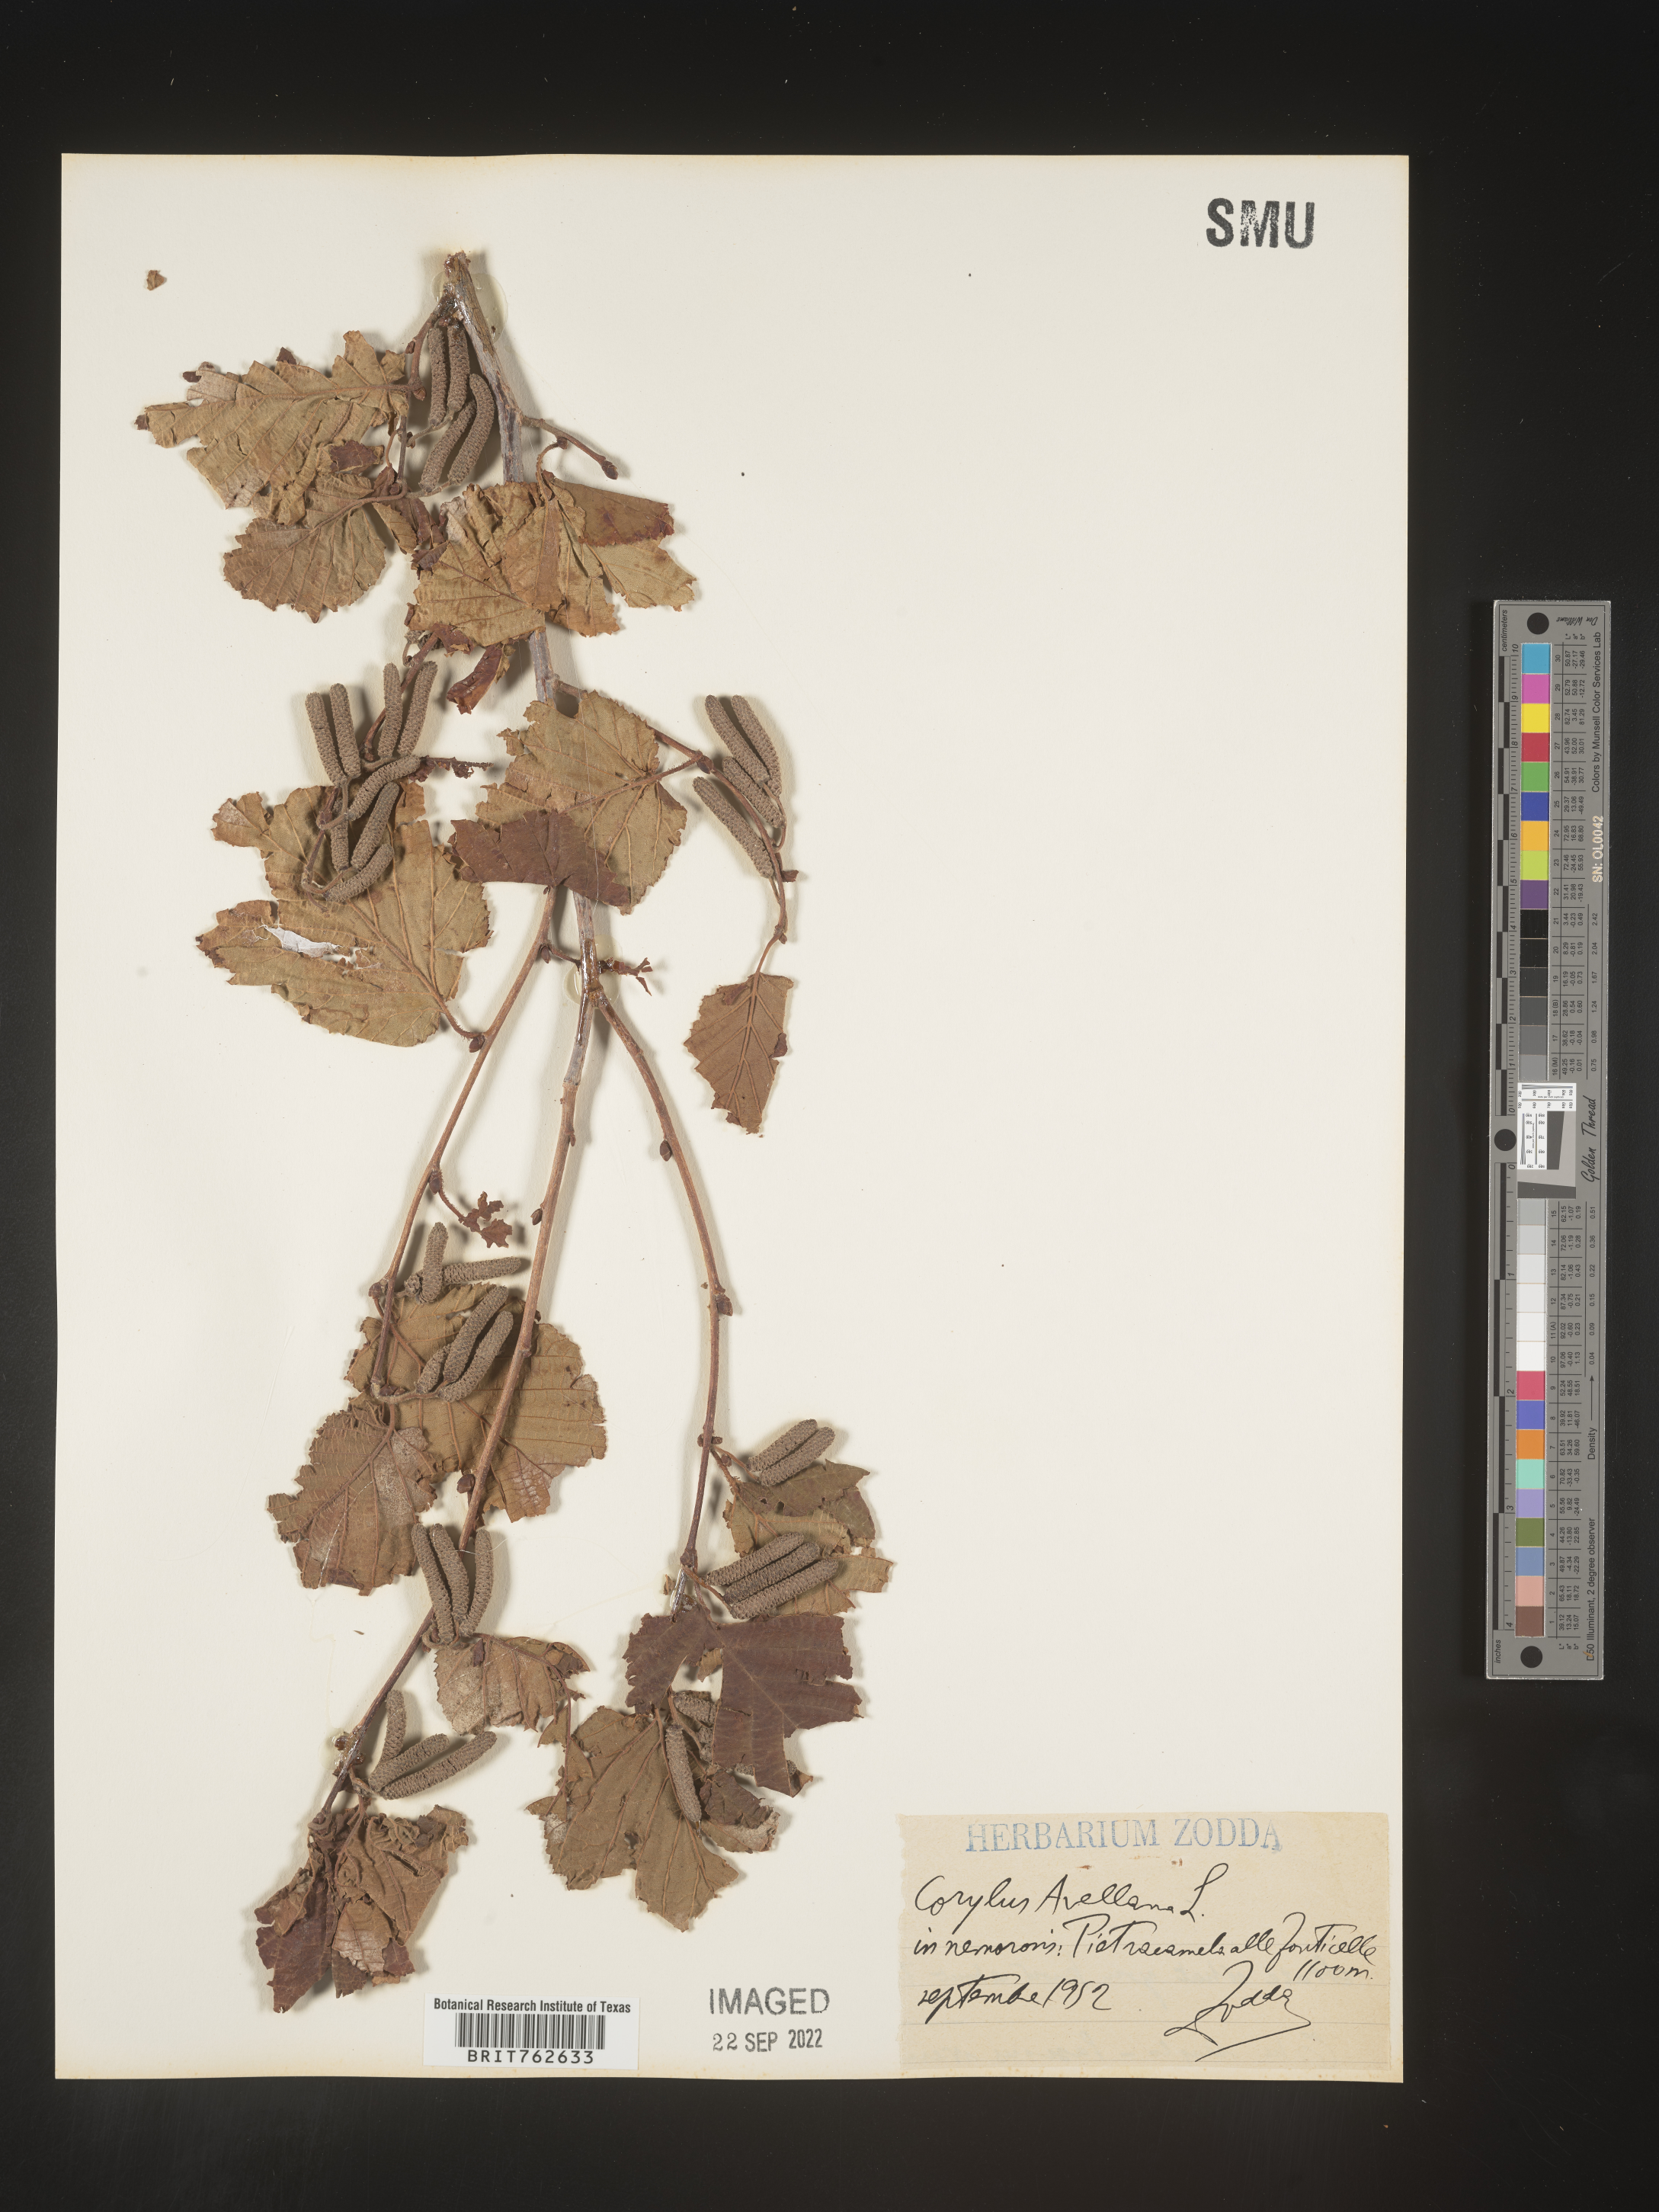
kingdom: Plantae
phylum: Tracheophyta
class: Magnoliopsida
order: Fagales
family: Betulaceae
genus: Corylus
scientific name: Corylus
